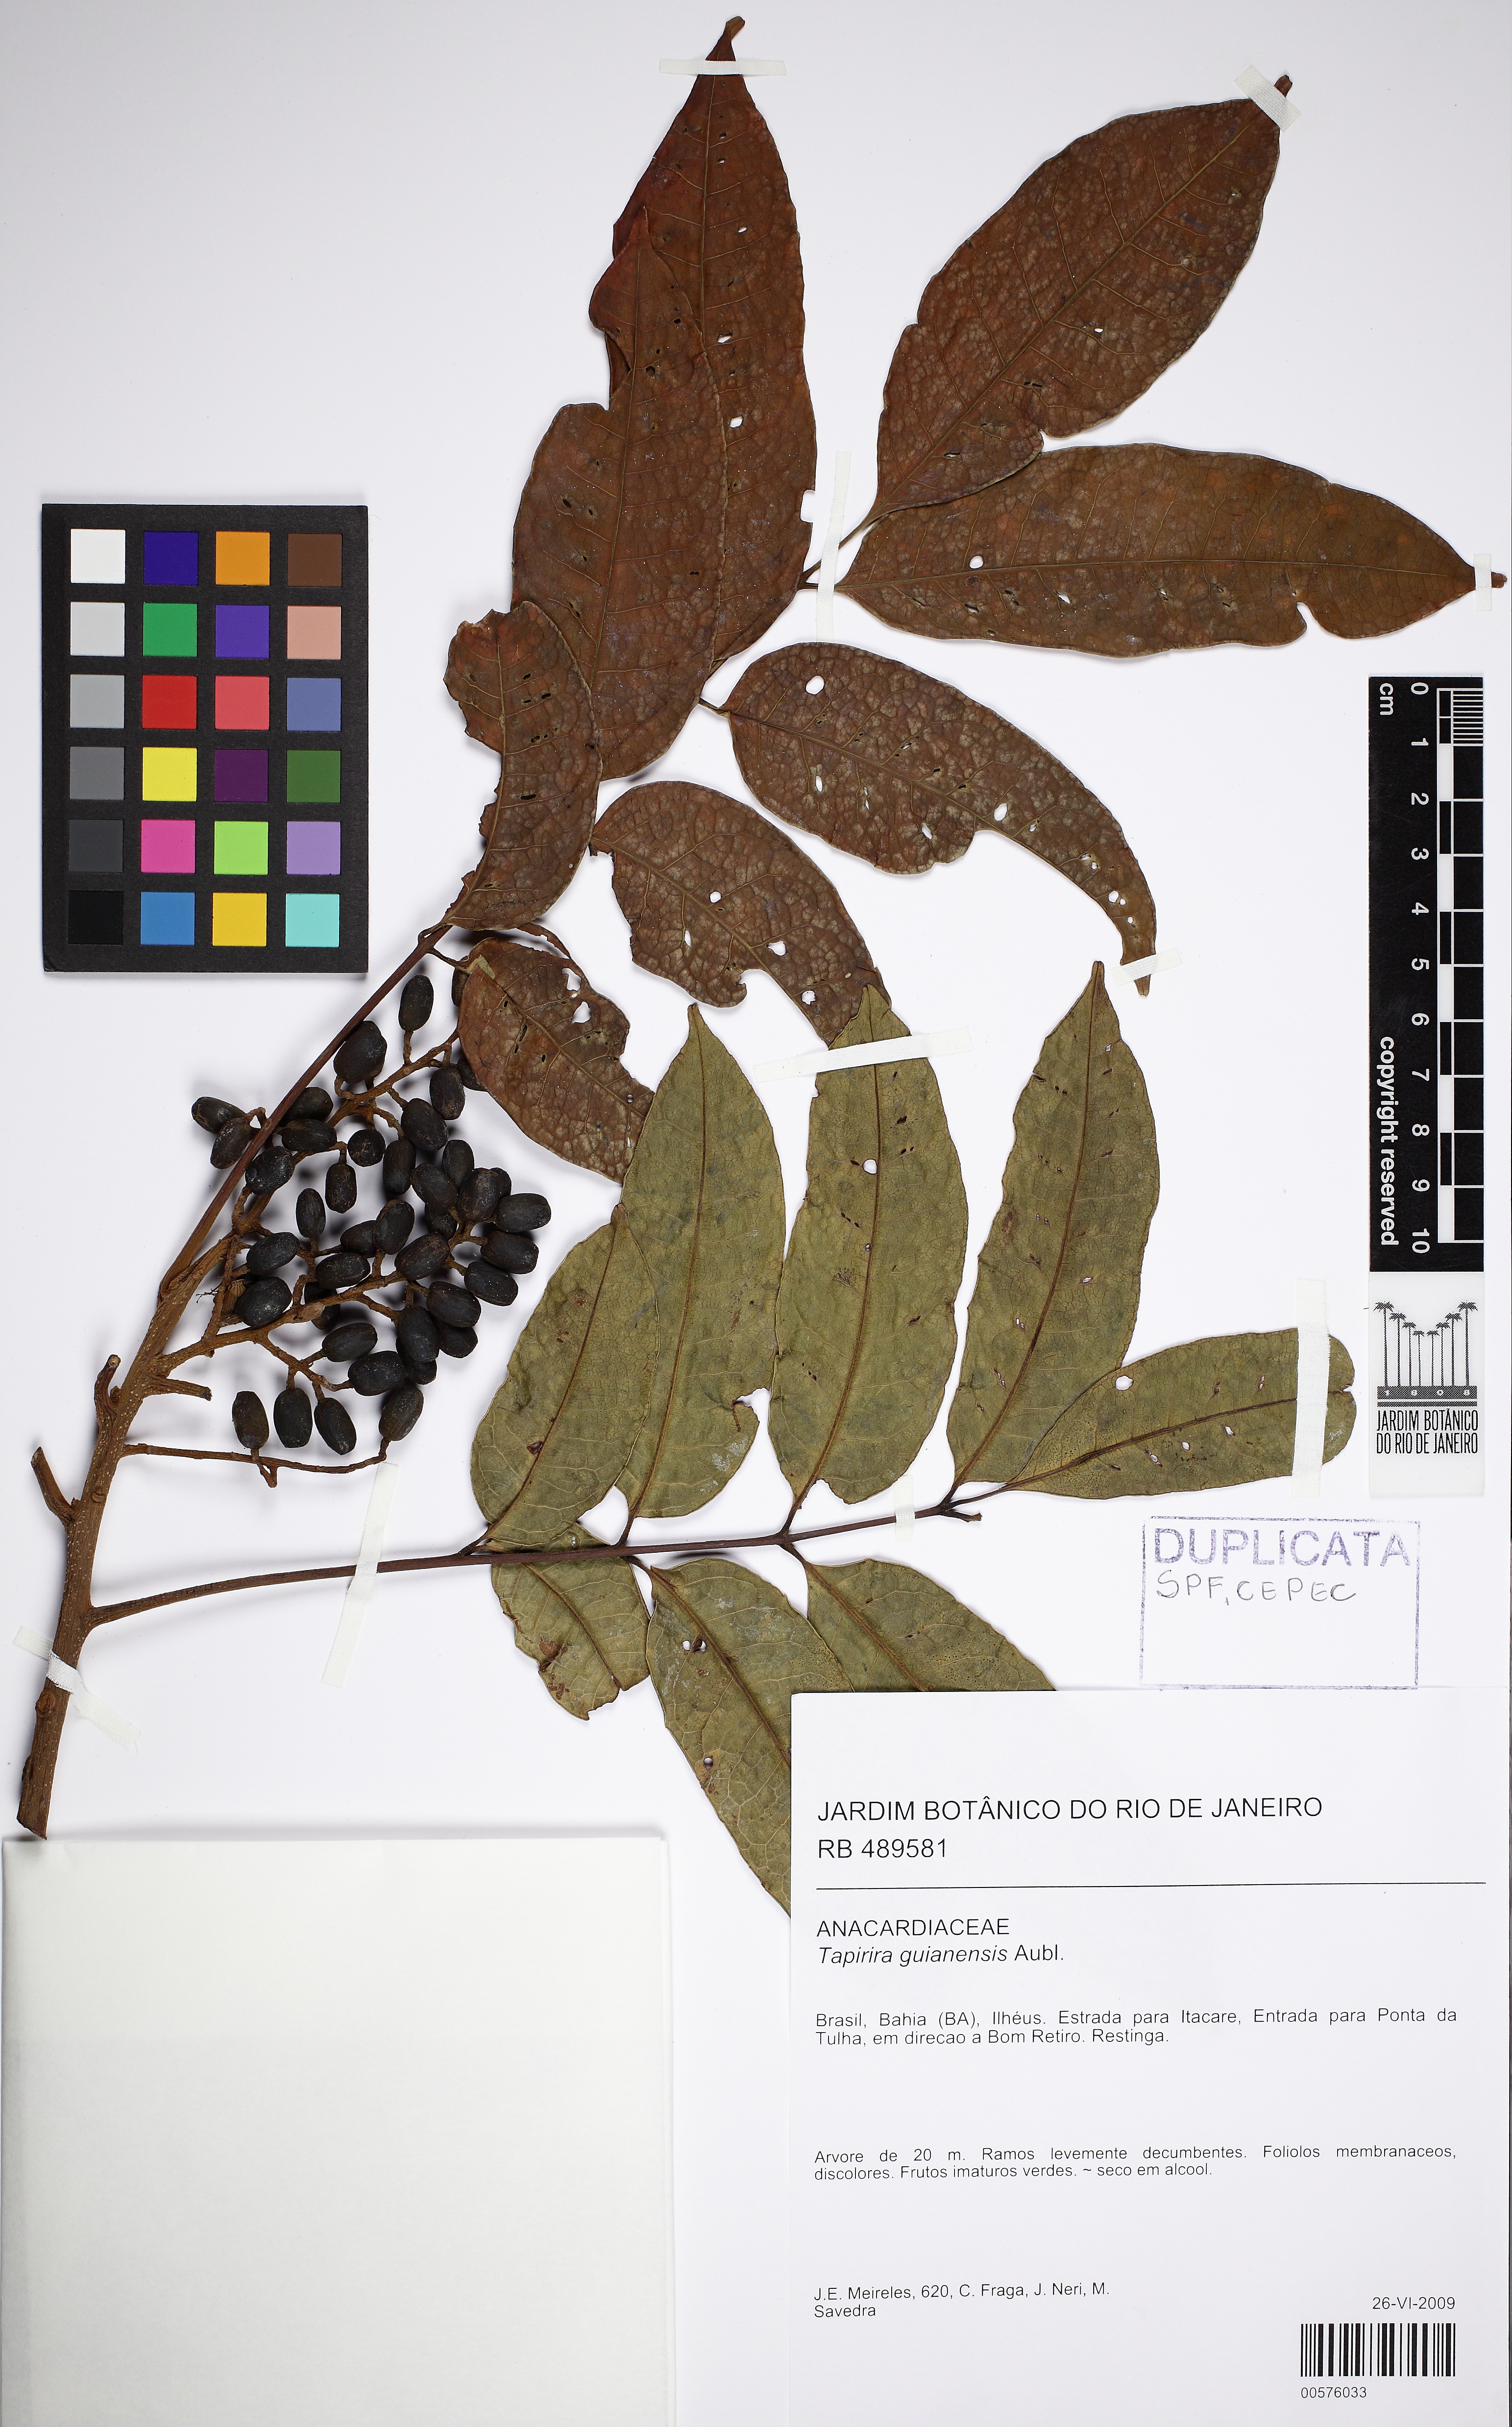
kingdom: Plantae
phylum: Tracheophyta
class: Magnoliopsida
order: Sapindales
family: Anacardiaceae
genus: Tapirira
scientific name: Tapirira guianensis
